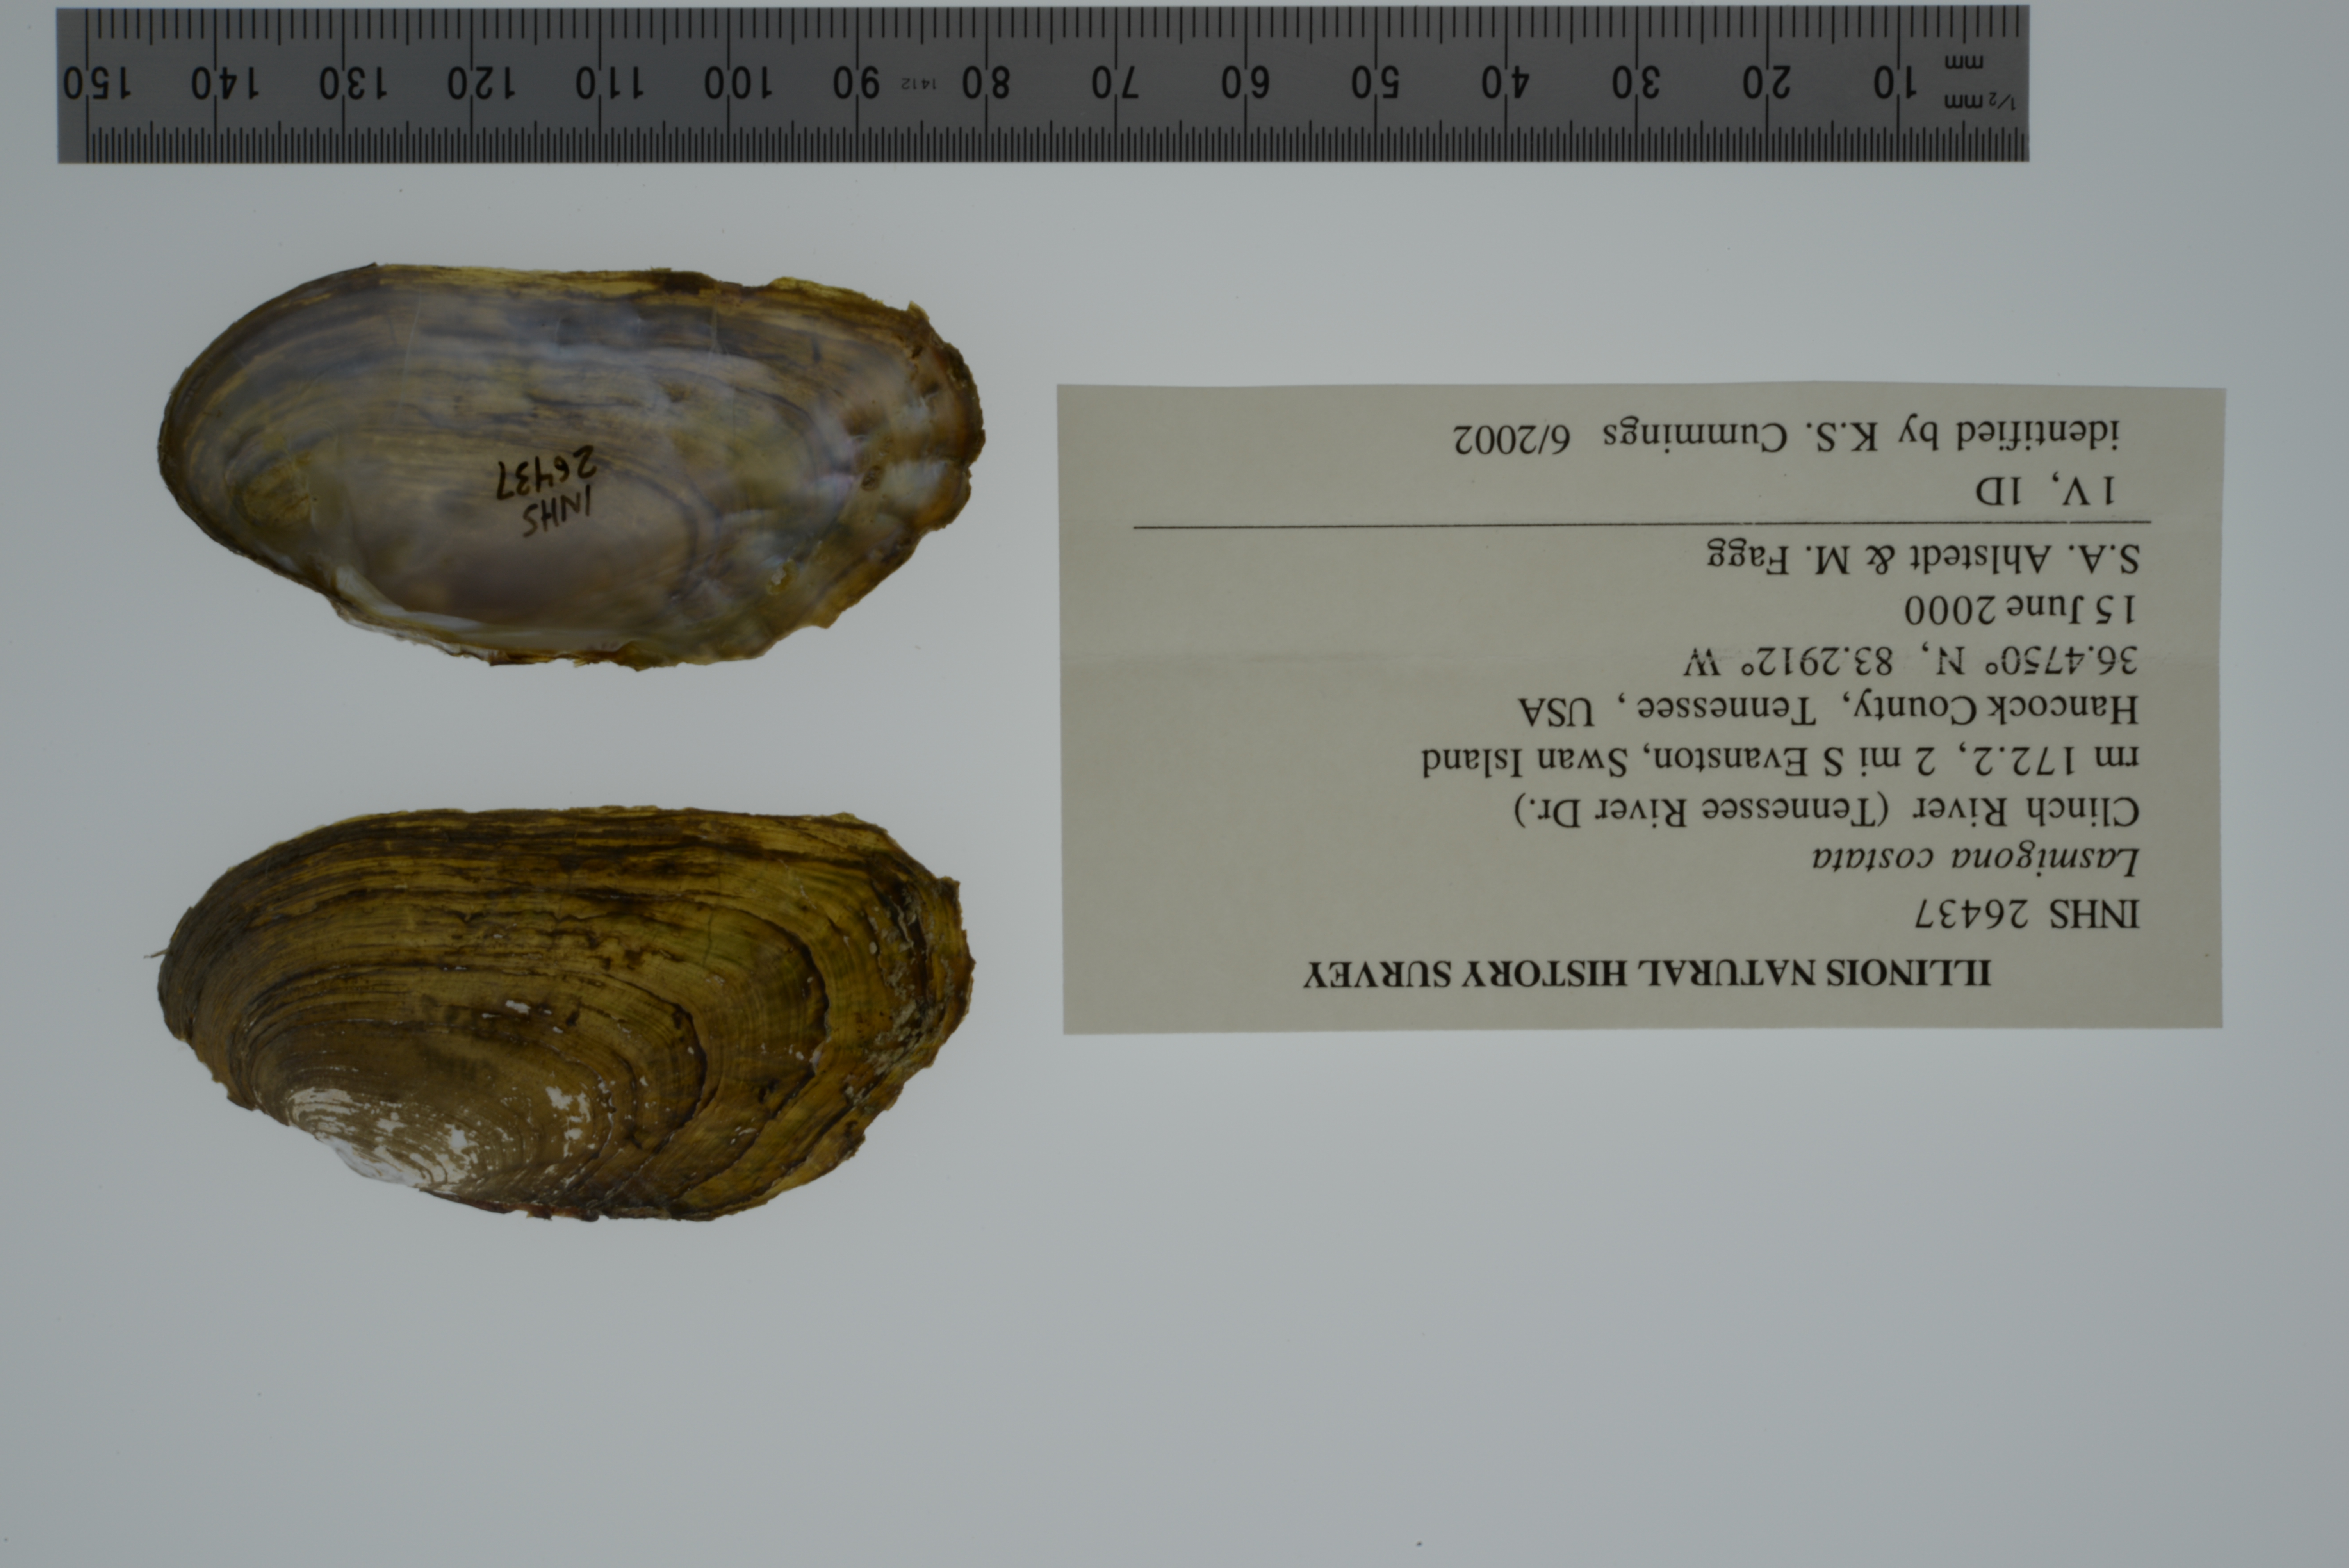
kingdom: Animalia
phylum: Mollusca
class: Bivalvia
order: Unionida
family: Unionidae
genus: Lasmigona
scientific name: Lasmigona costata
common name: Flutedshell
